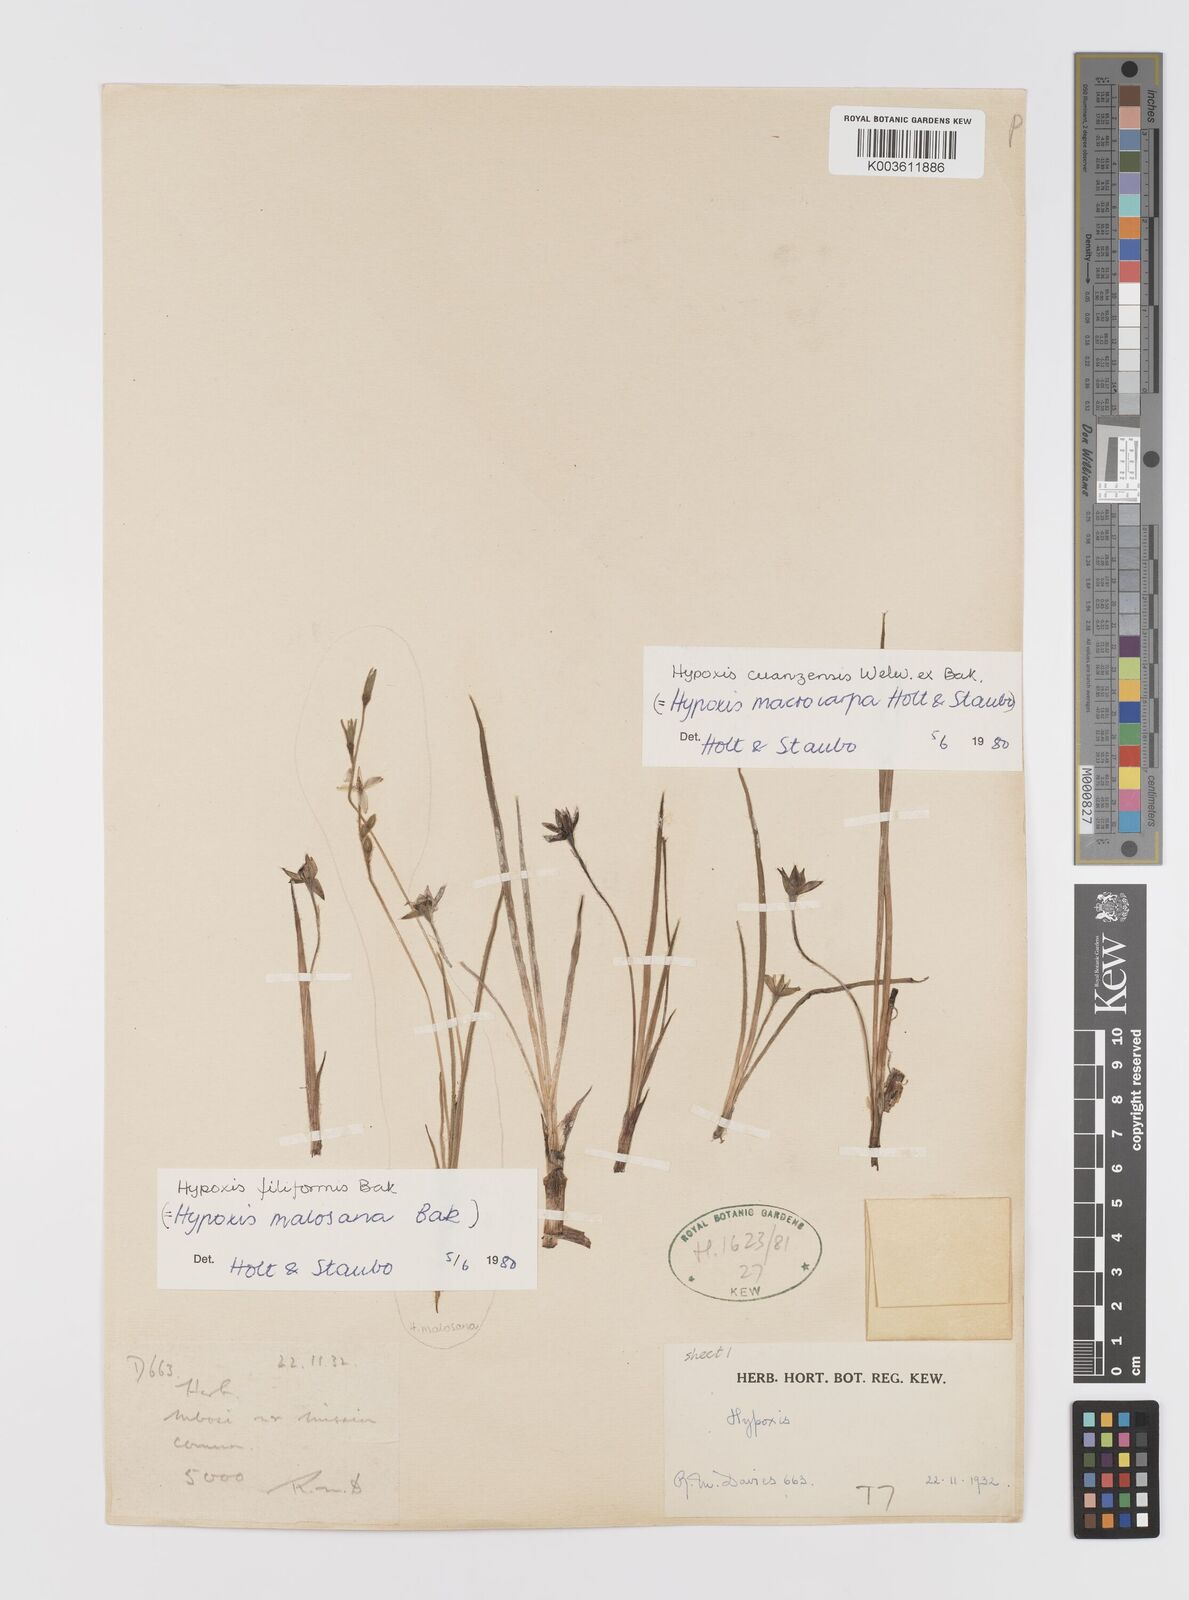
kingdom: Plantae
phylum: Tracheophyta
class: Liliopsida
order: Asparagales
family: Hypoxidaceae
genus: Hypoxis
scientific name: Hypoxis schimperi
